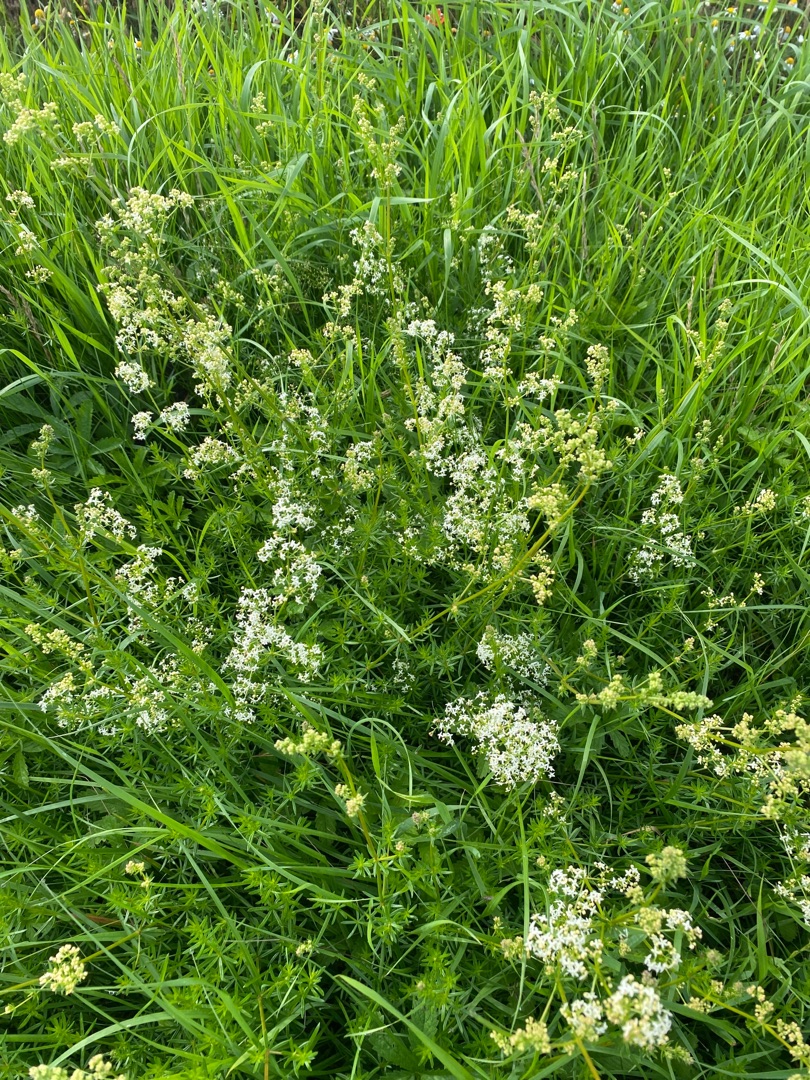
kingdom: Plantae
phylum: Tracheophyta
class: Magnoliopsida
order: Gentianales
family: Rubiaceae
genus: Galium
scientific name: Galium mollugo
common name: Hvid snerre
